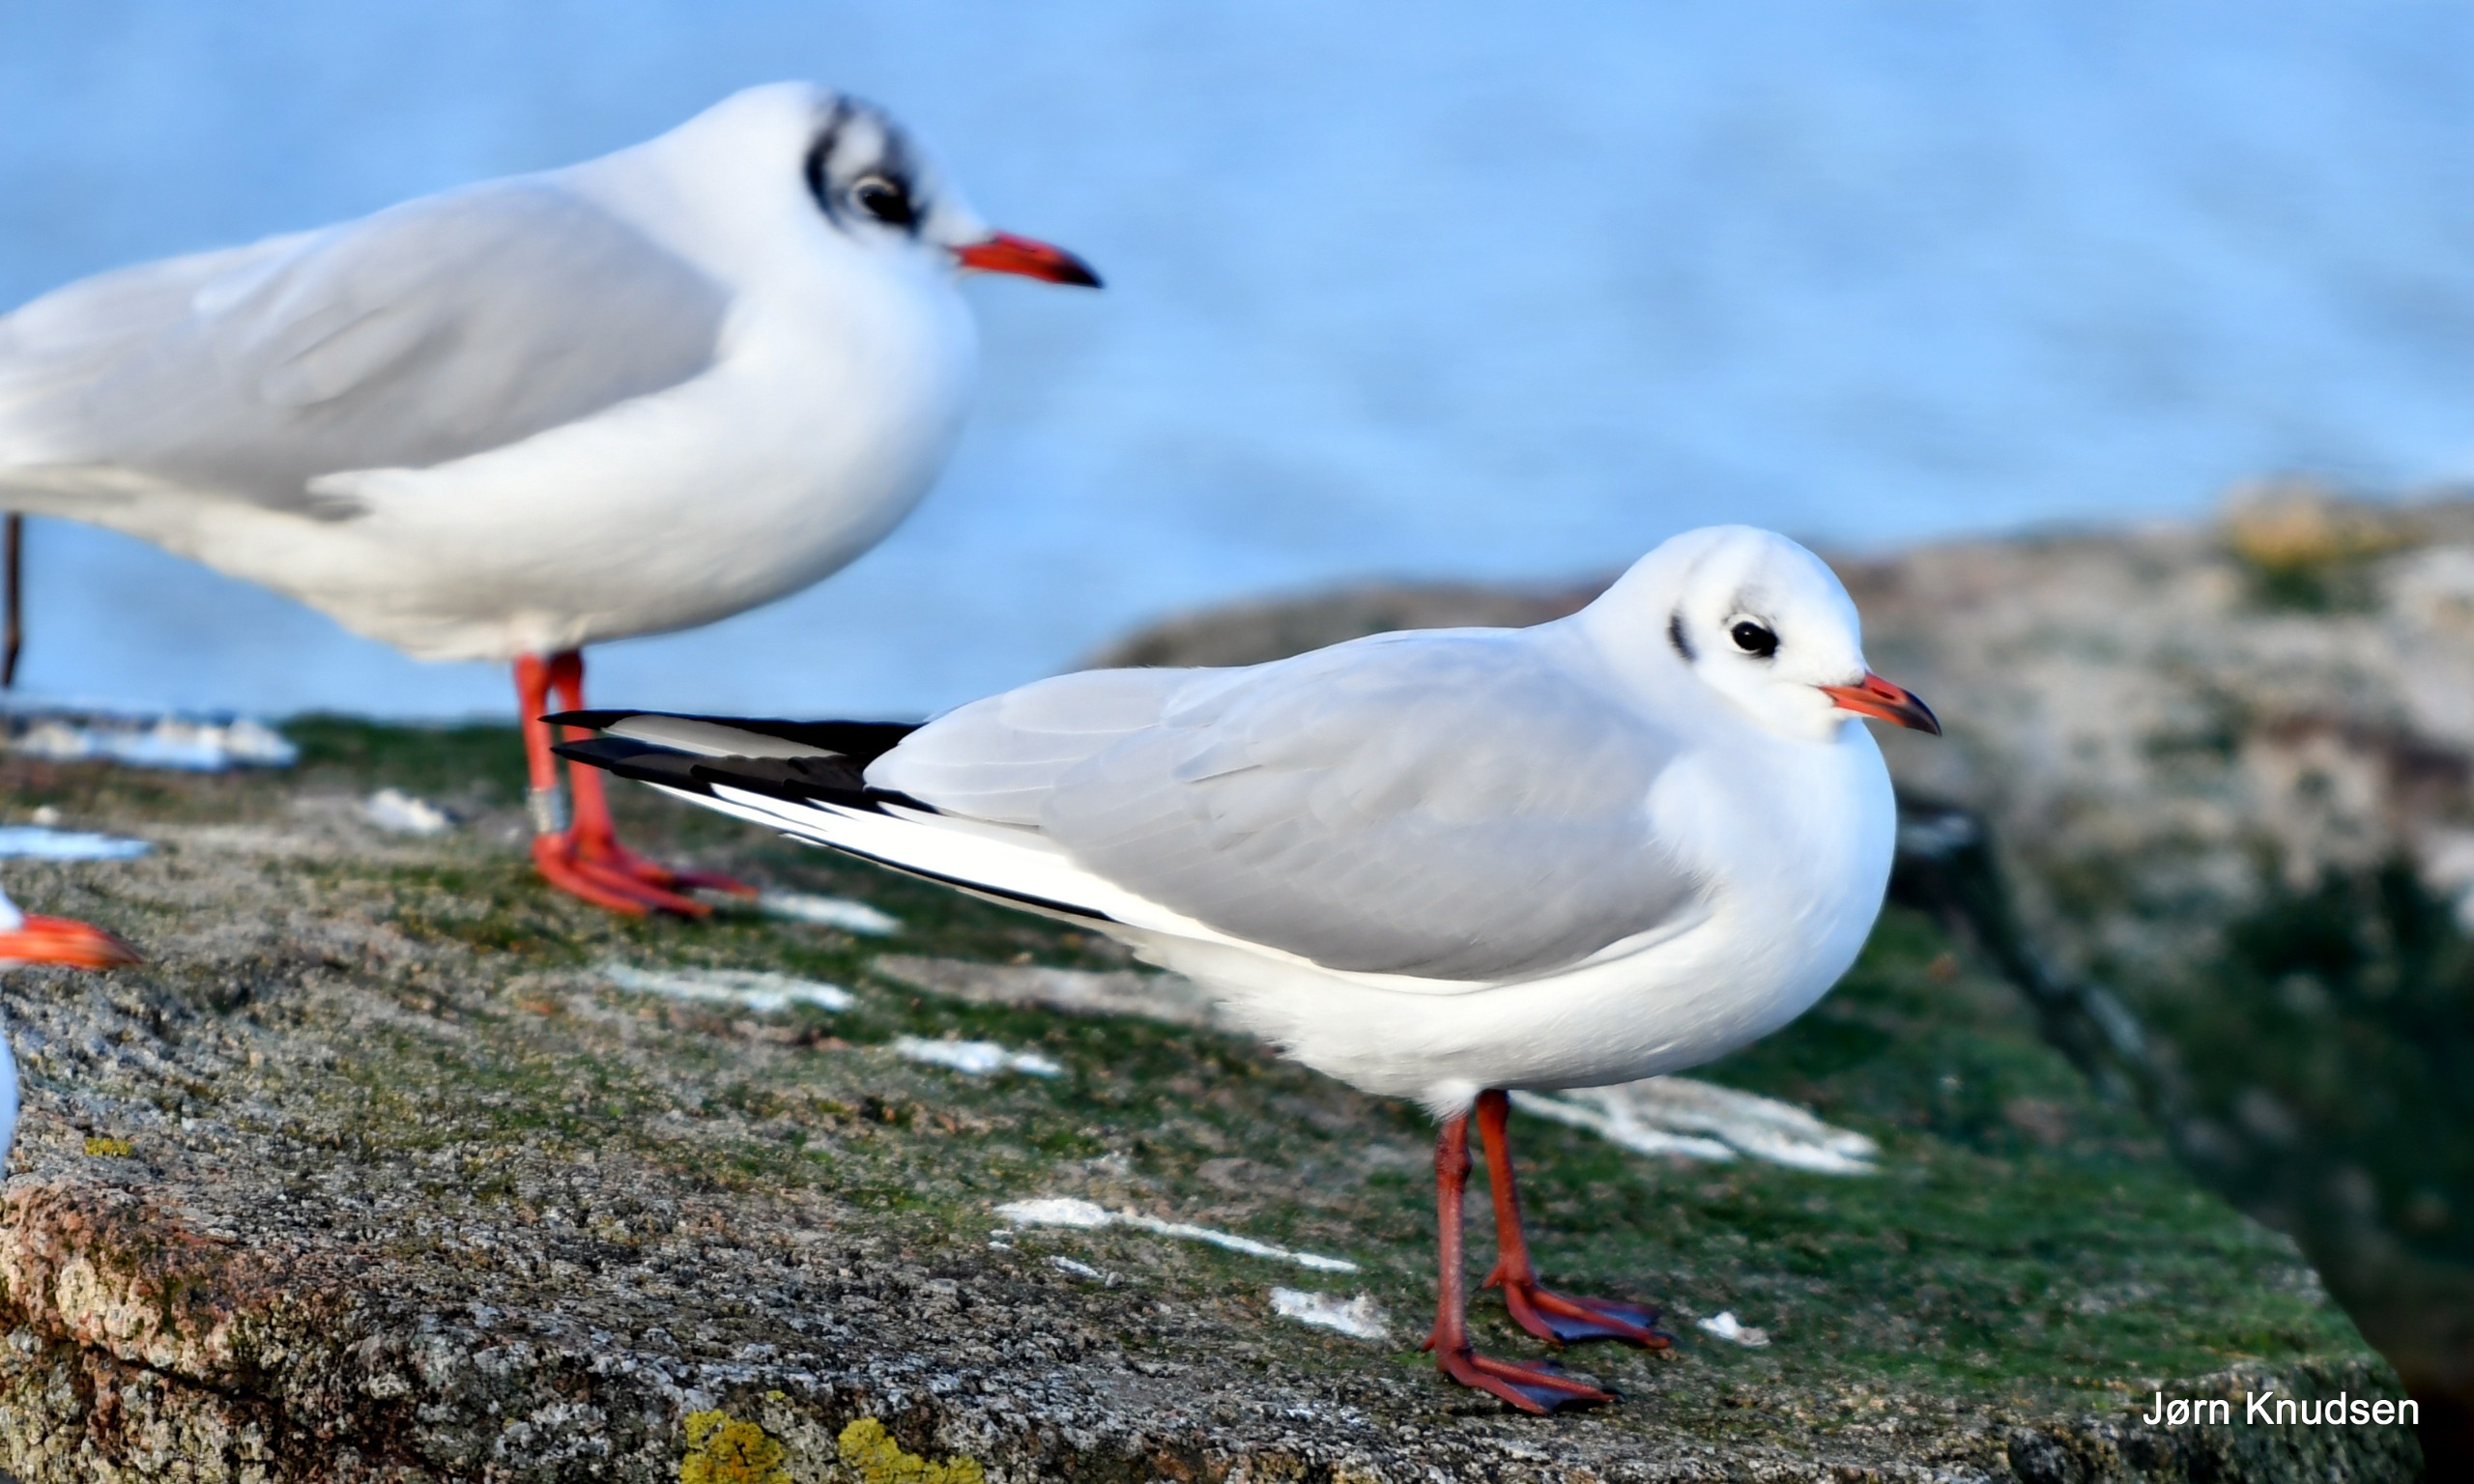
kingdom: Animalia
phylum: Chordata
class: Aves
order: Charadriiformes
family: Laridae
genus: Chroicocephalus
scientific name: Chroicocephalus ridibundus
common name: Hættemåge
